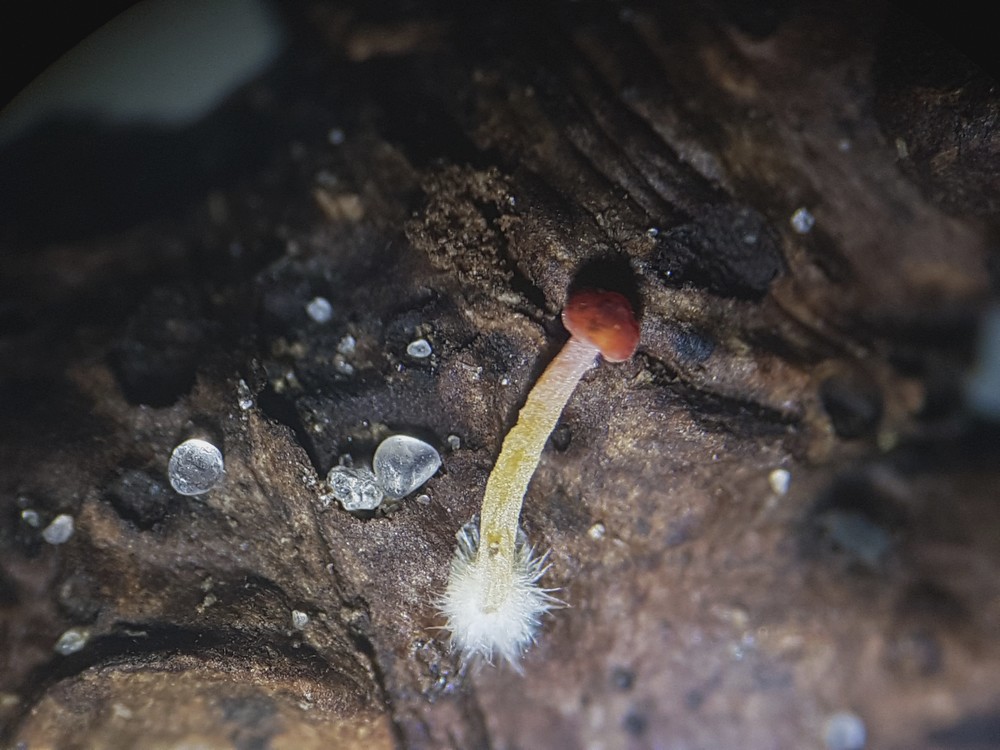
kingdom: Fungi
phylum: Basidiomycota
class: Agaricomycetes
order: Agaricales
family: Mycenaceae
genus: Mycena
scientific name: Mycena acicula
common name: orange huesvamp
